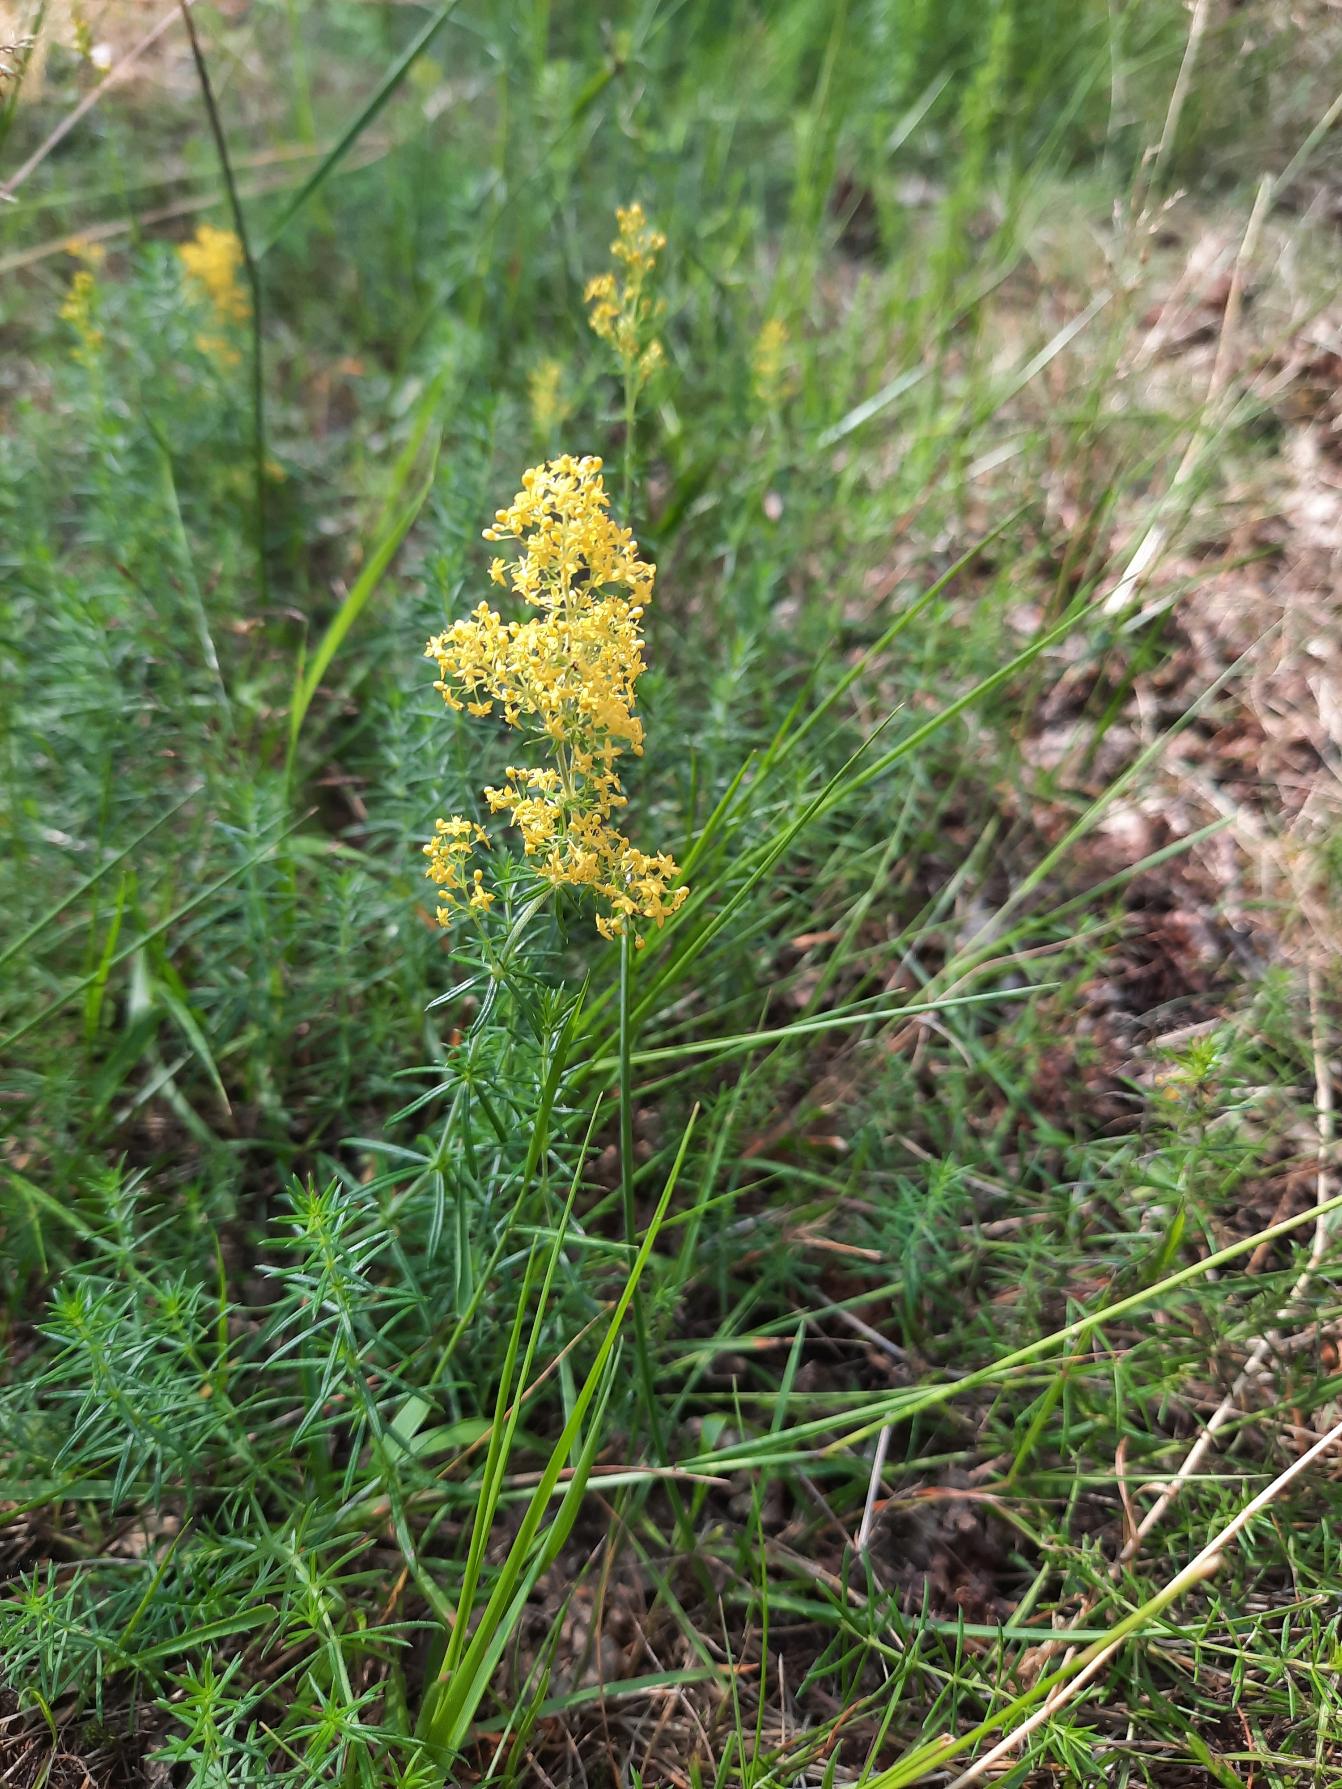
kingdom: Plantae
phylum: Tracheophyta
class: Magnoliopsida
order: Gentianales
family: Rubiaceae
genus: Galium
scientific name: Galium verum
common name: Gul snerre
